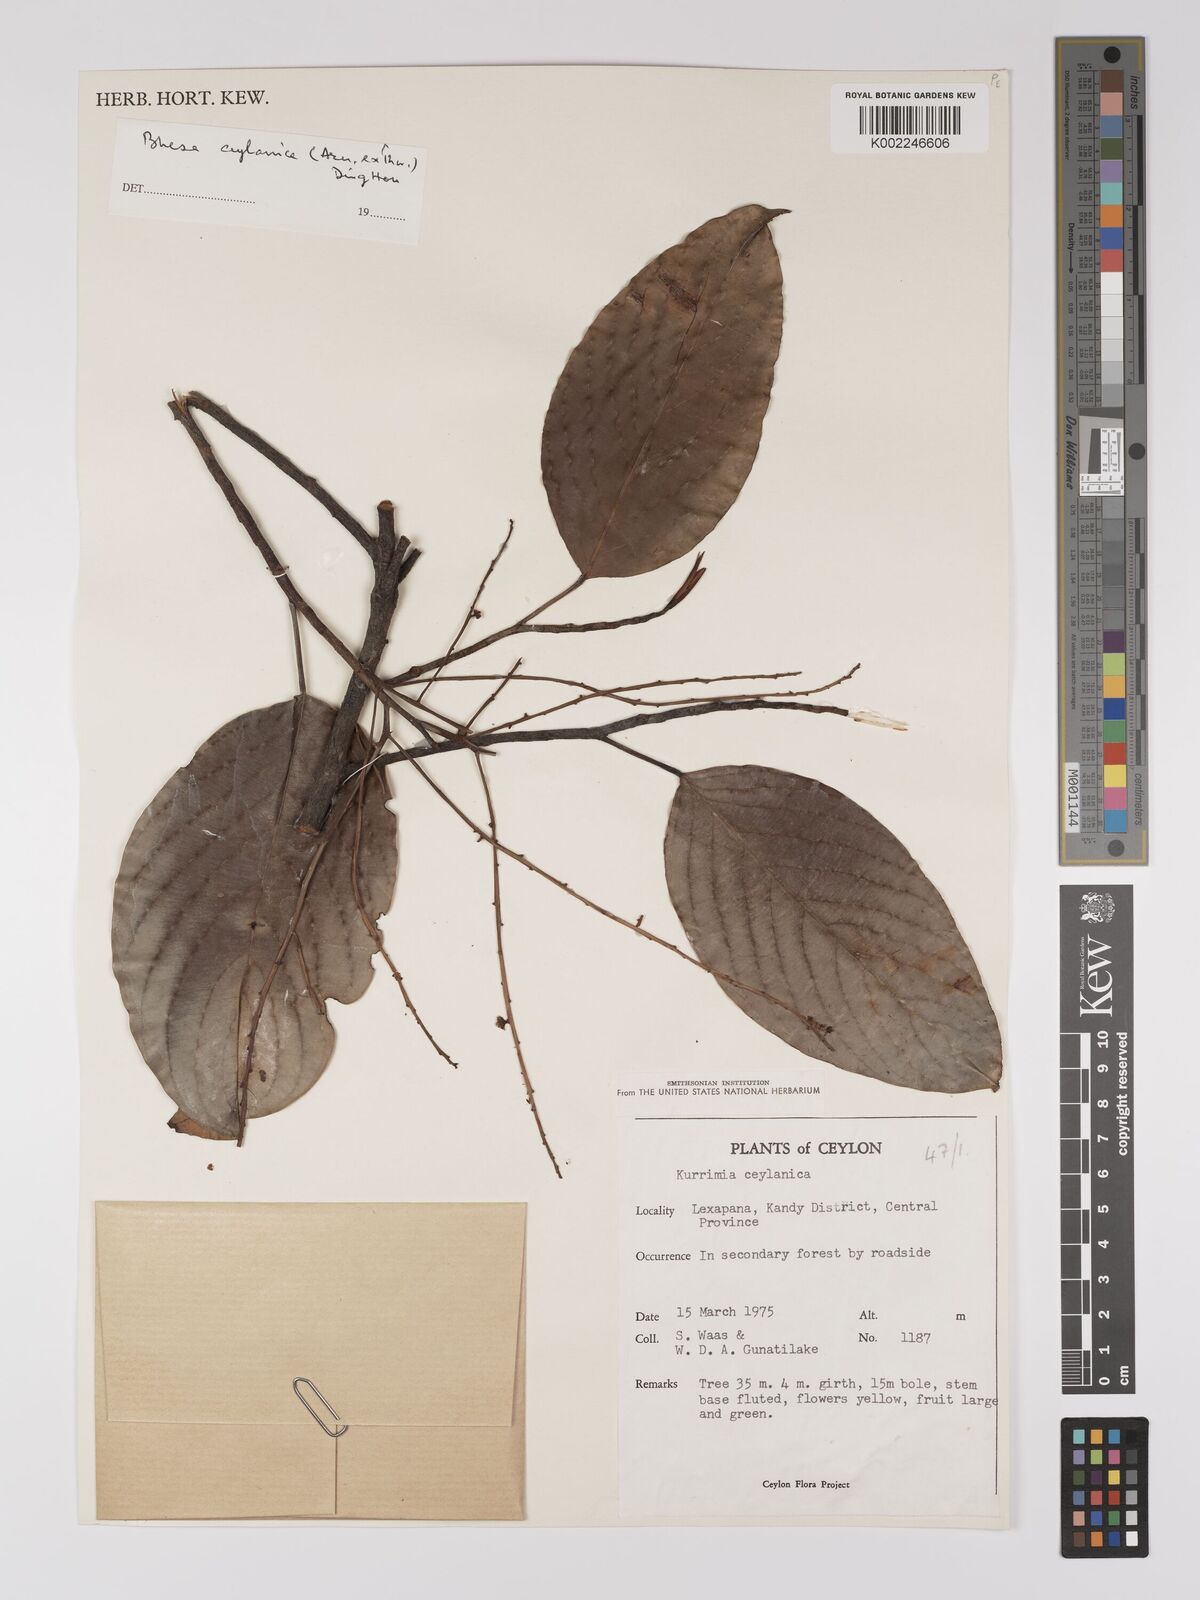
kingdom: Plantae
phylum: Tracheophyta
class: Magnoliopsida
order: Malpighiales
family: Centroplacaceae
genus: Bhesa
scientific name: Bhesa ceylanica
